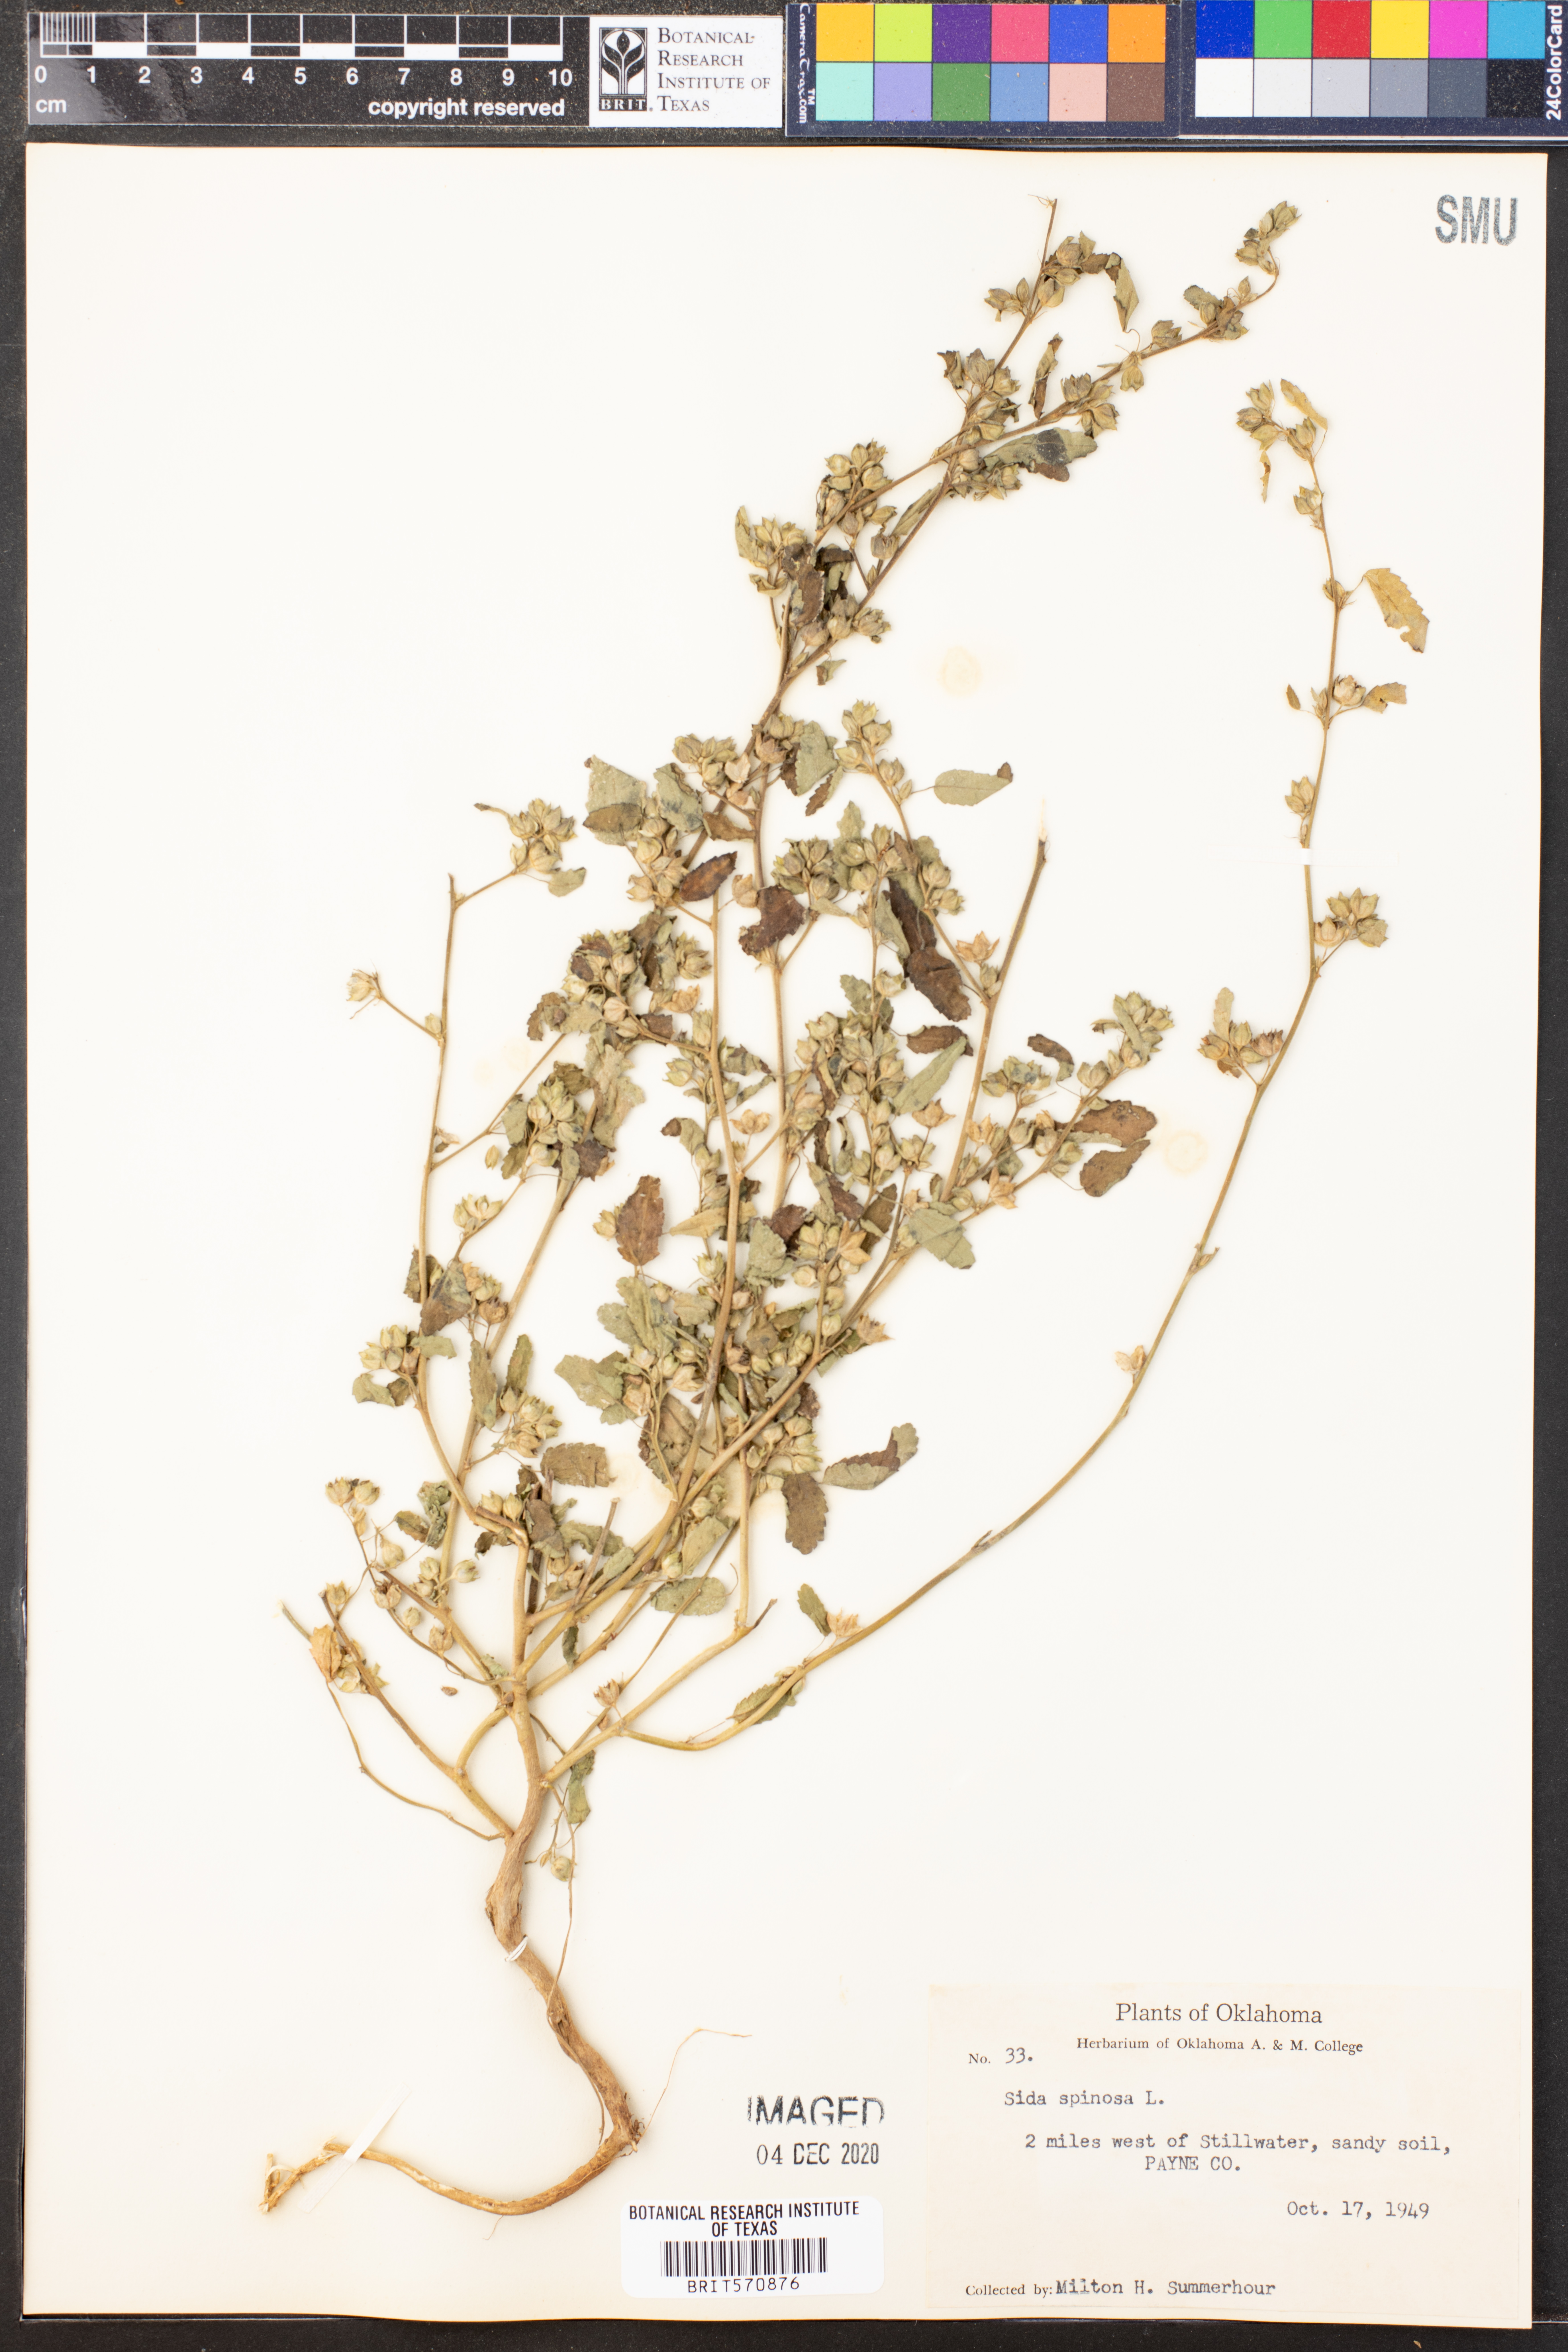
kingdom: Plantae
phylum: Tracheophyta
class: Magnoliopsida
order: Malvales
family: Malvaceae
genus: Sida
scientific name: Sida spinosa
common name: Prickly fanpetals
